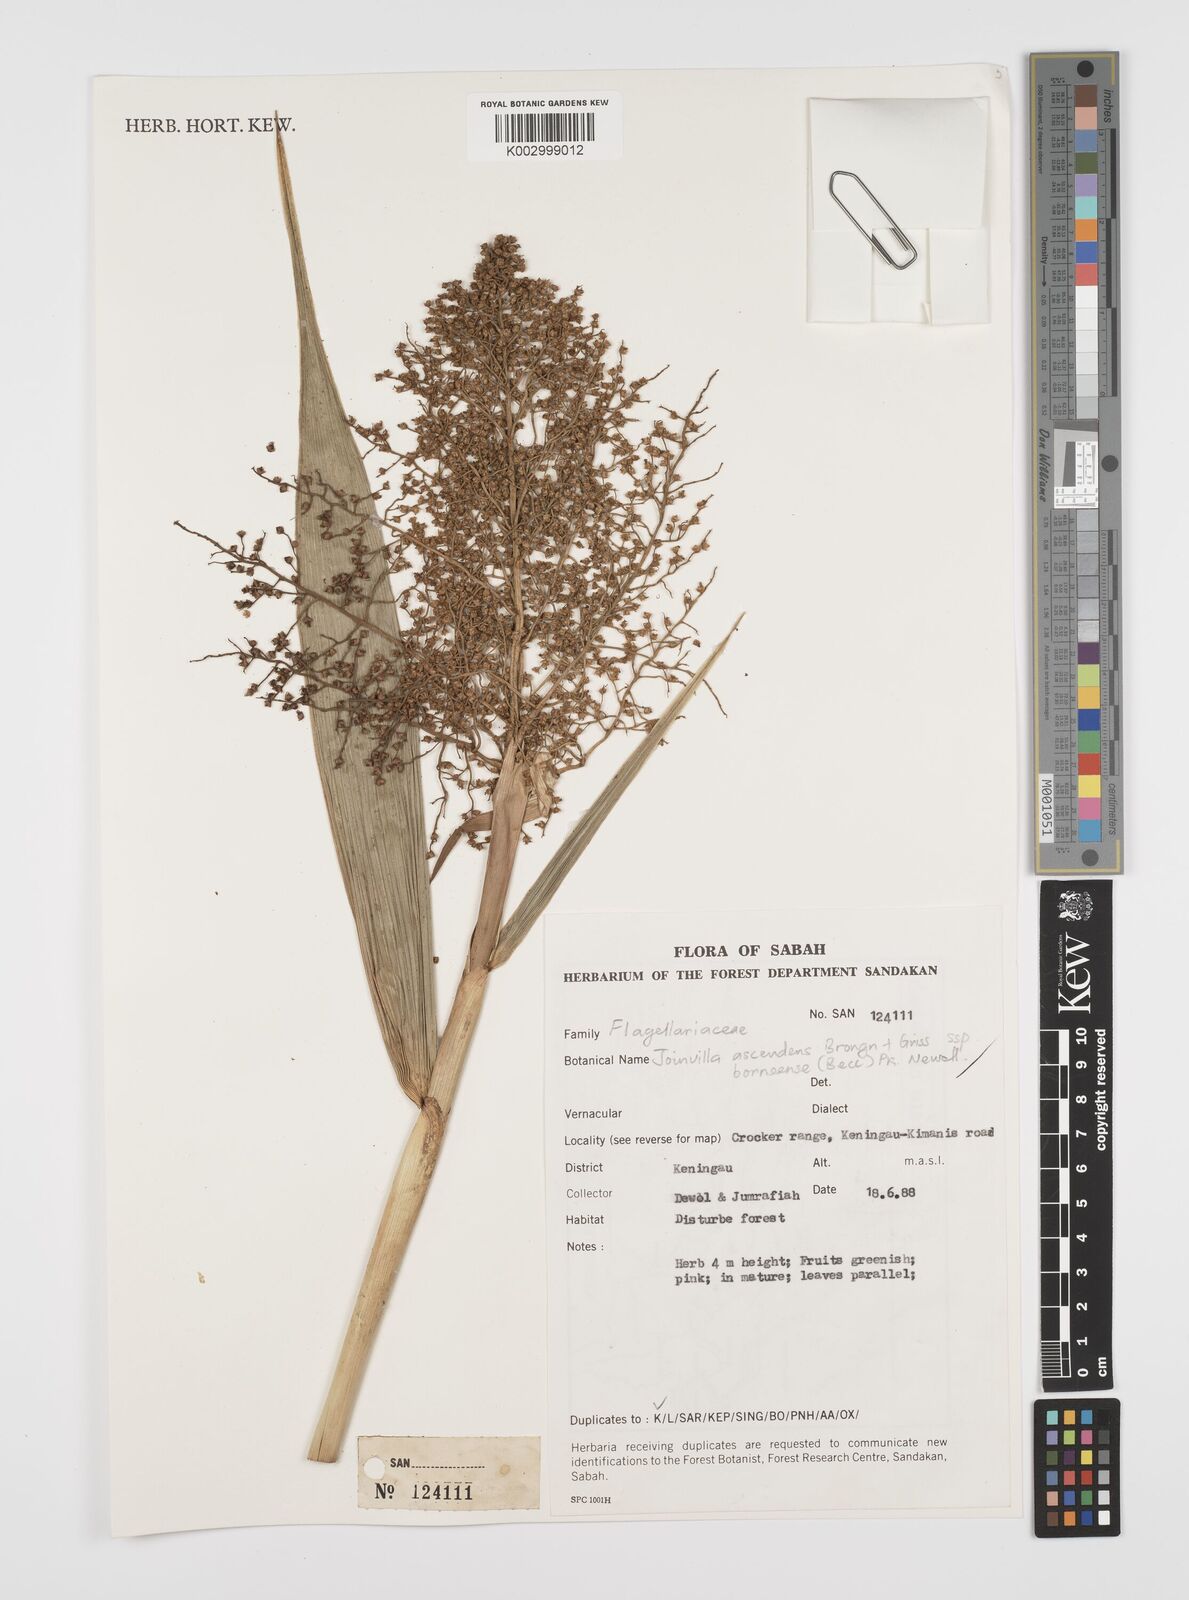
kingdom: Plantae
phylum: Tracheophyta
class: Liliopsida
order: Poales
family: Joinvilleaceae
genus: Joinvillea
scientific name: Joinvillea borneensis
